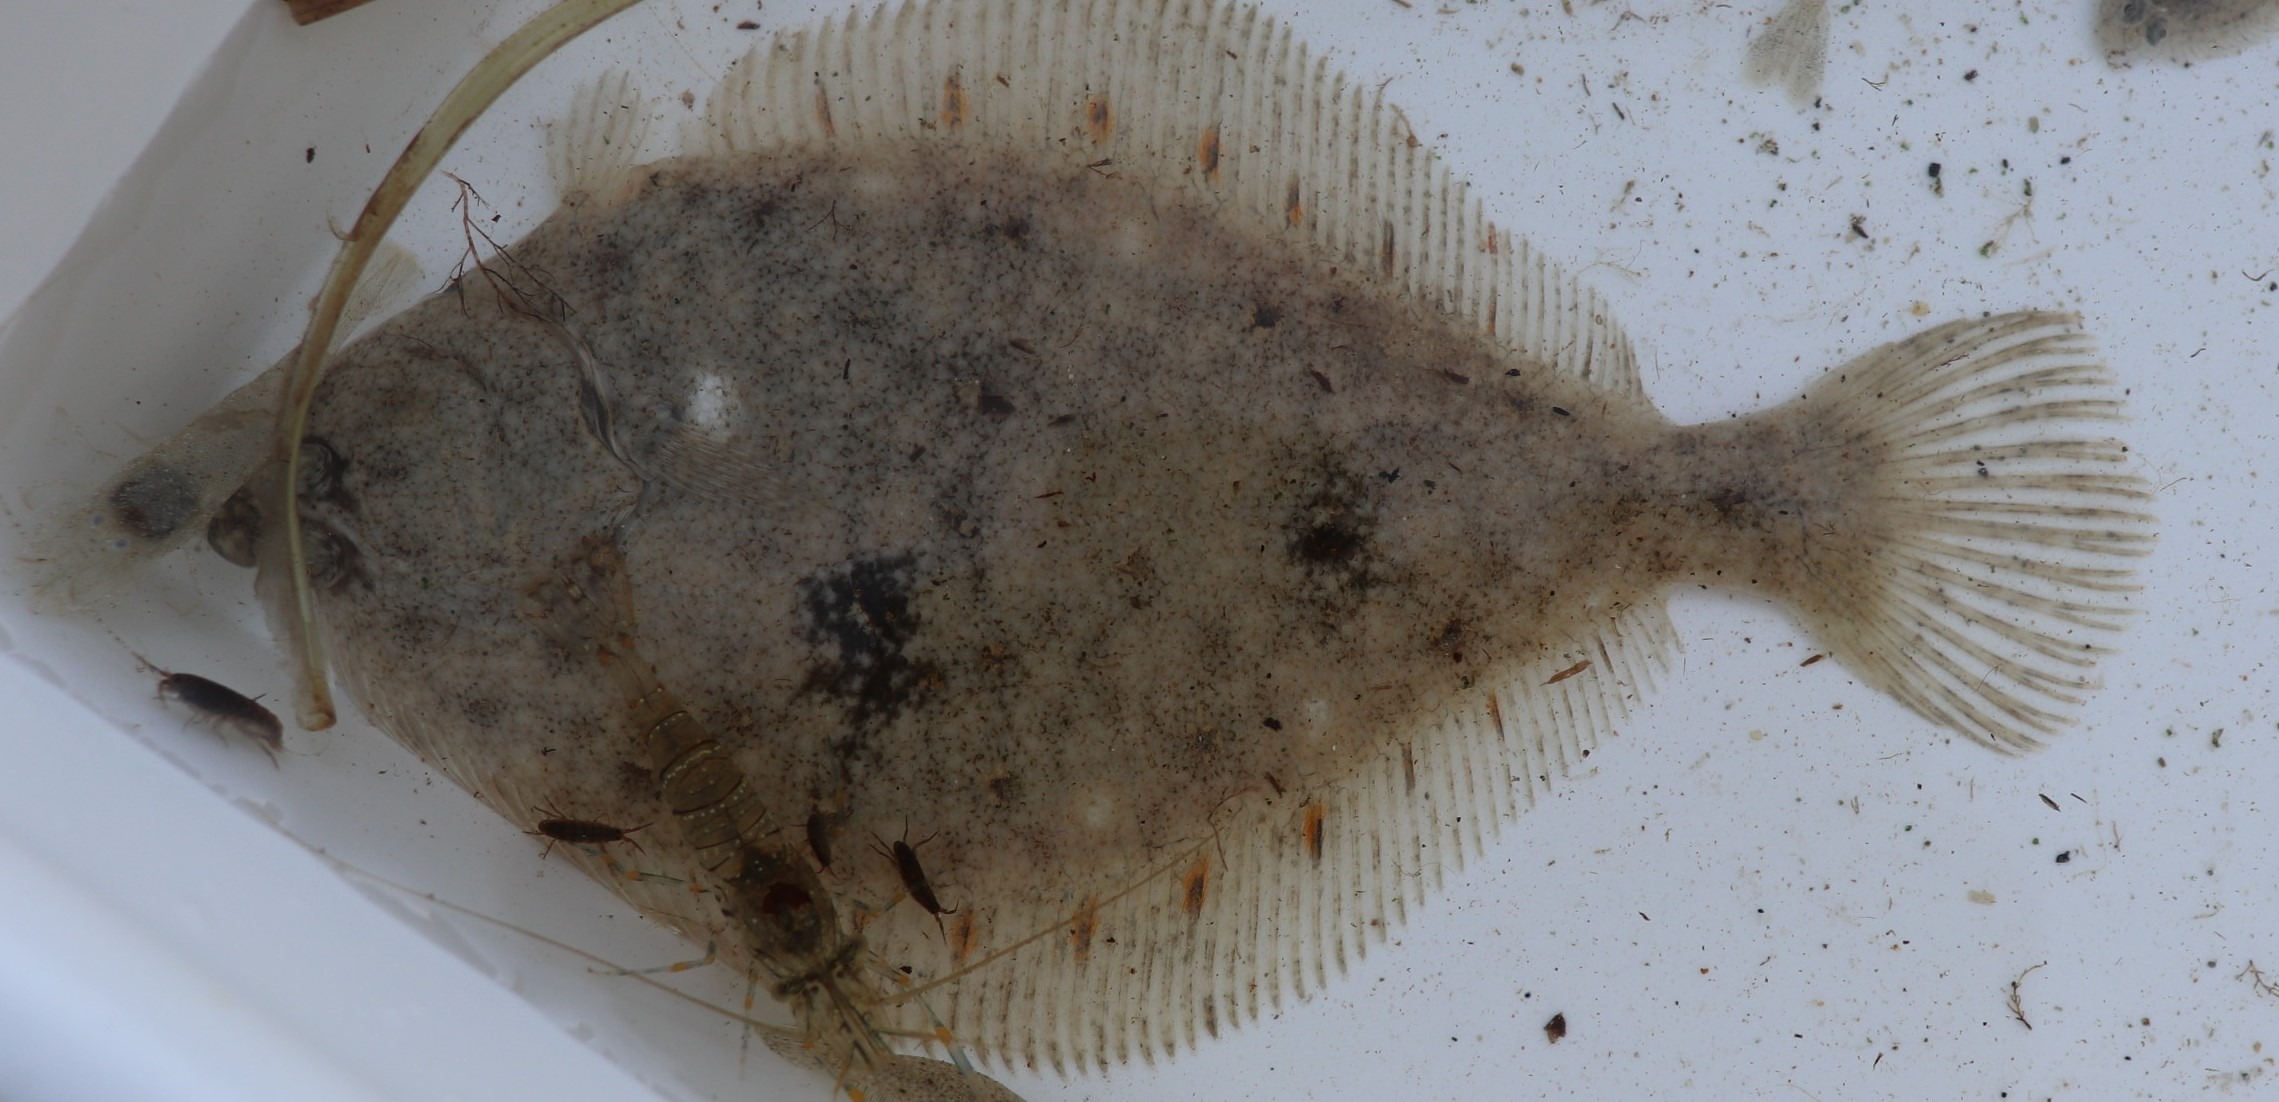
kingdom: Animalia
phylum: Chordata
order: Pleuronectiformes
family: Pleuronectidae
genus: Pleuronectes
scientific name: Pleuronectes platessa
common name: Rødspætte
